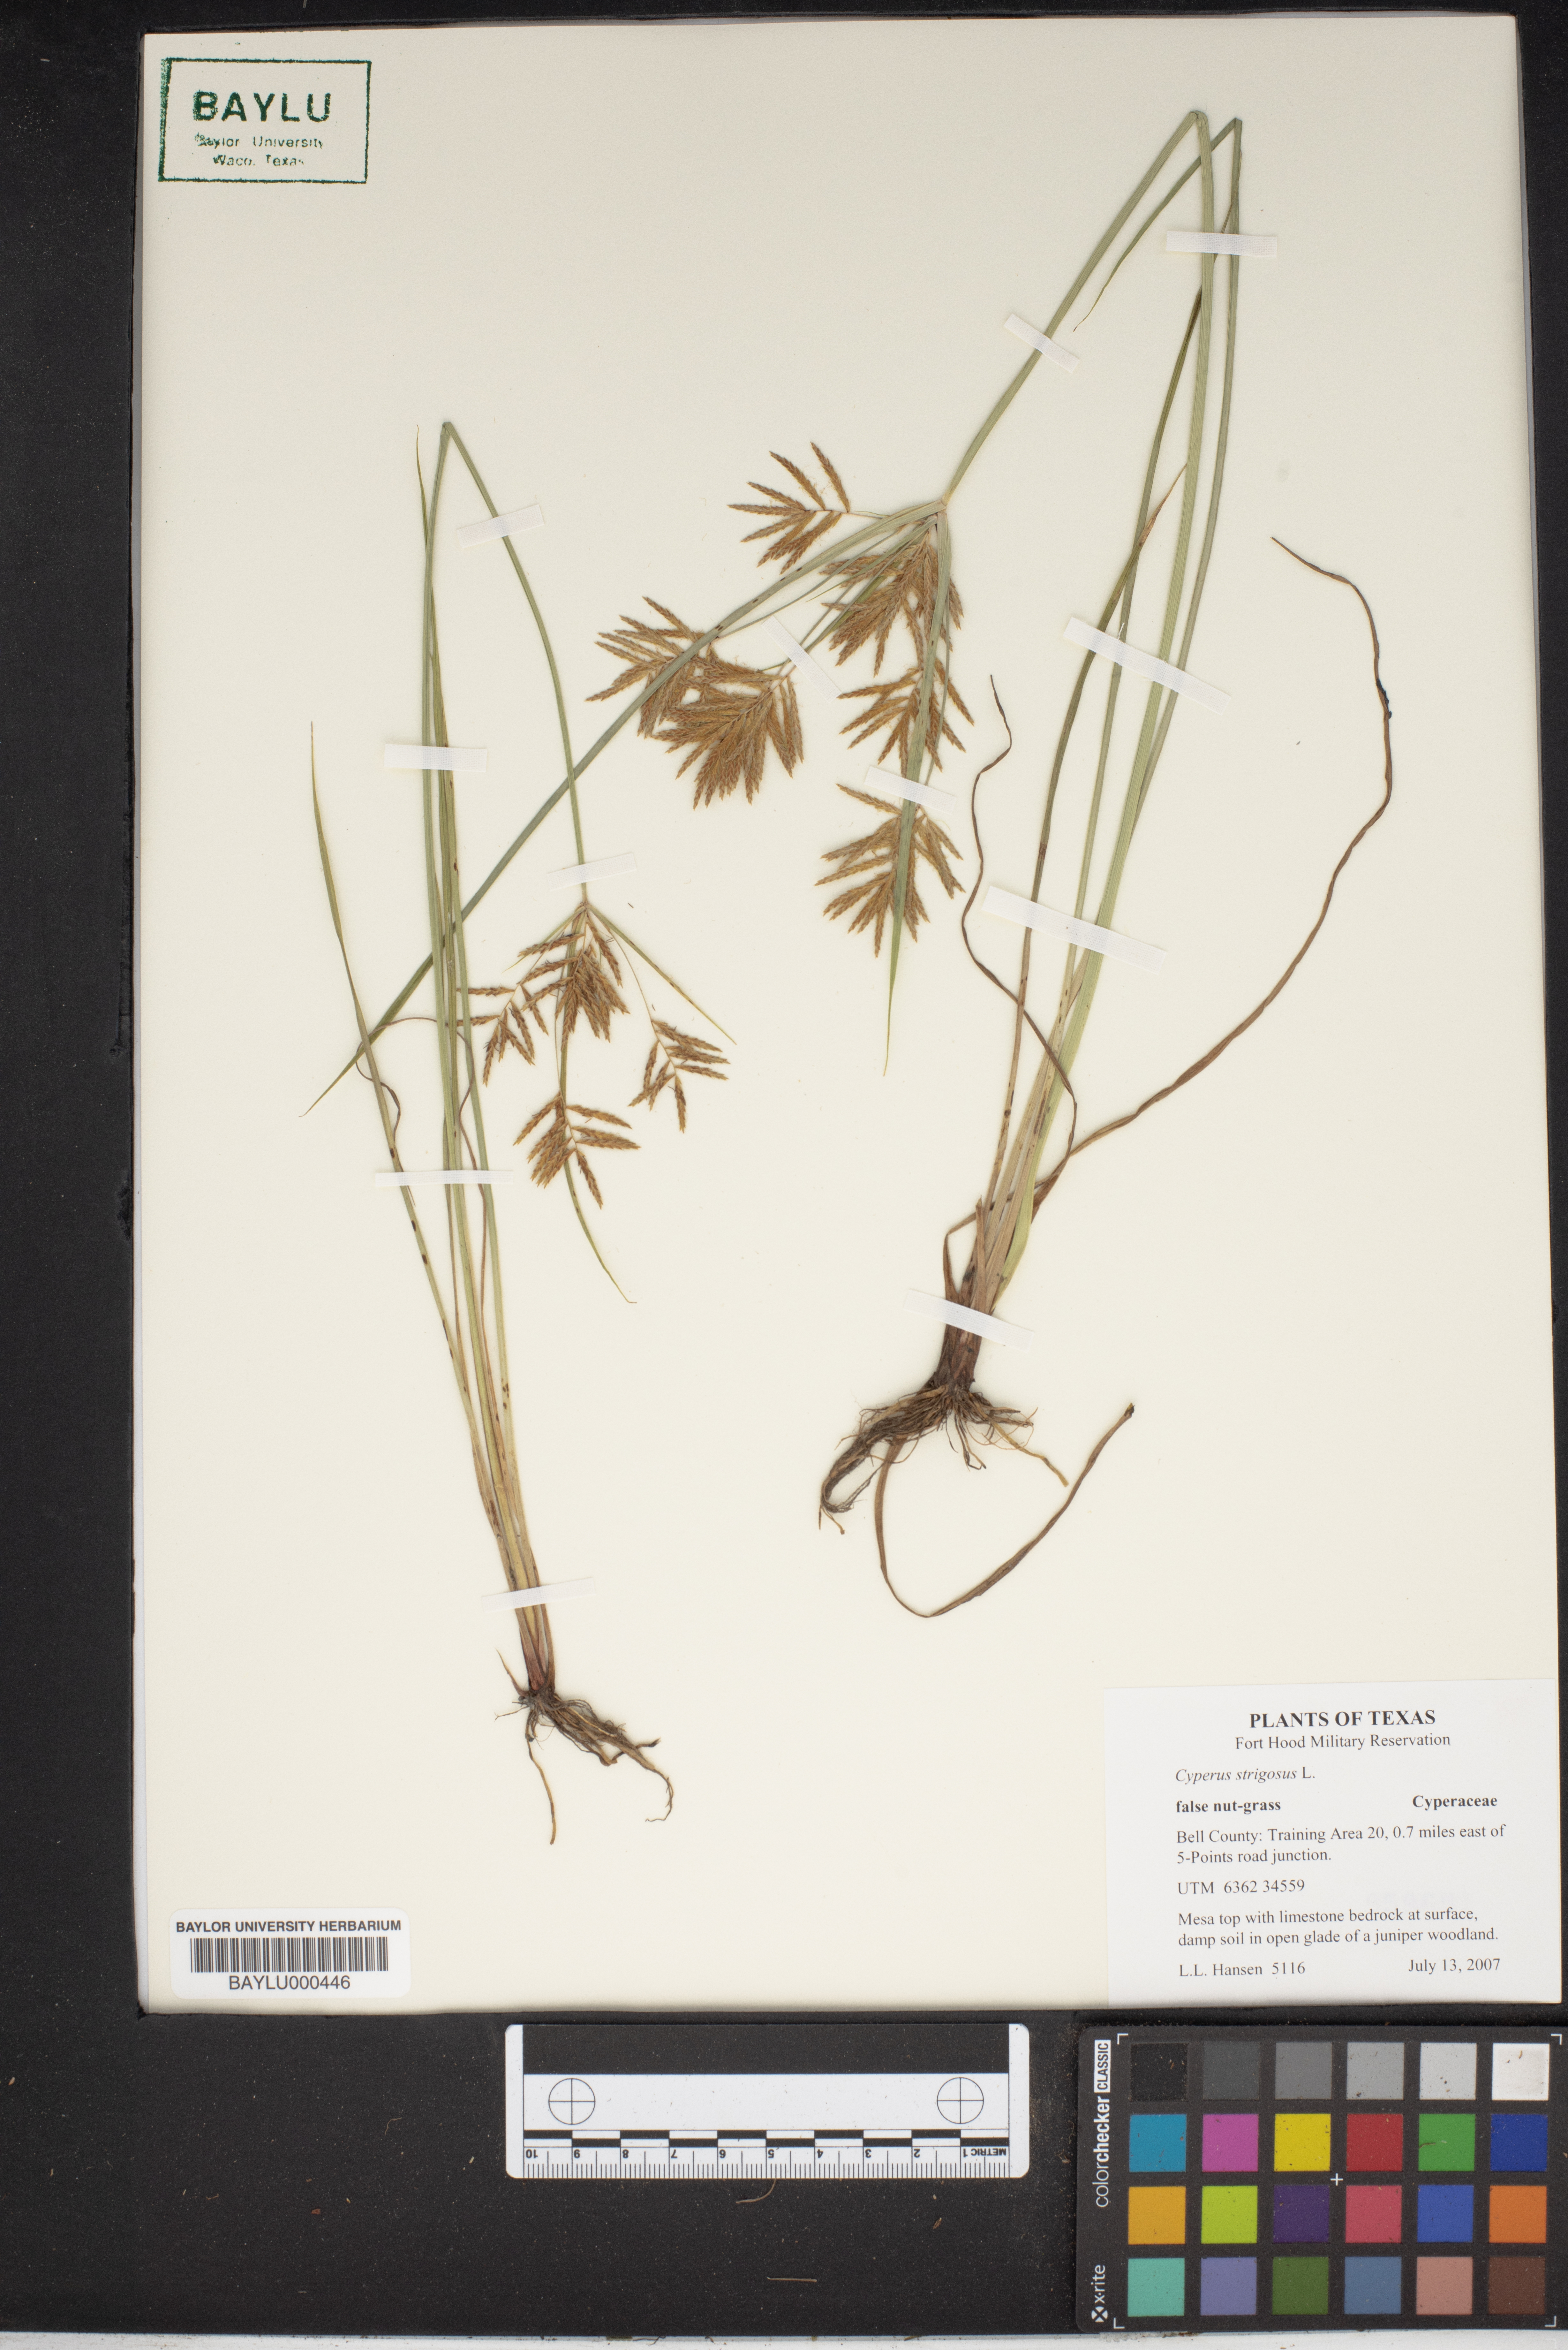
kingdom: Plantae
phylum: Tracheophyta
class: Liliopsida
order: Poales
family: Cyperaceae
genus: Cyperus
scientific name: Cyperus strigosus
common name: False nutsedge
